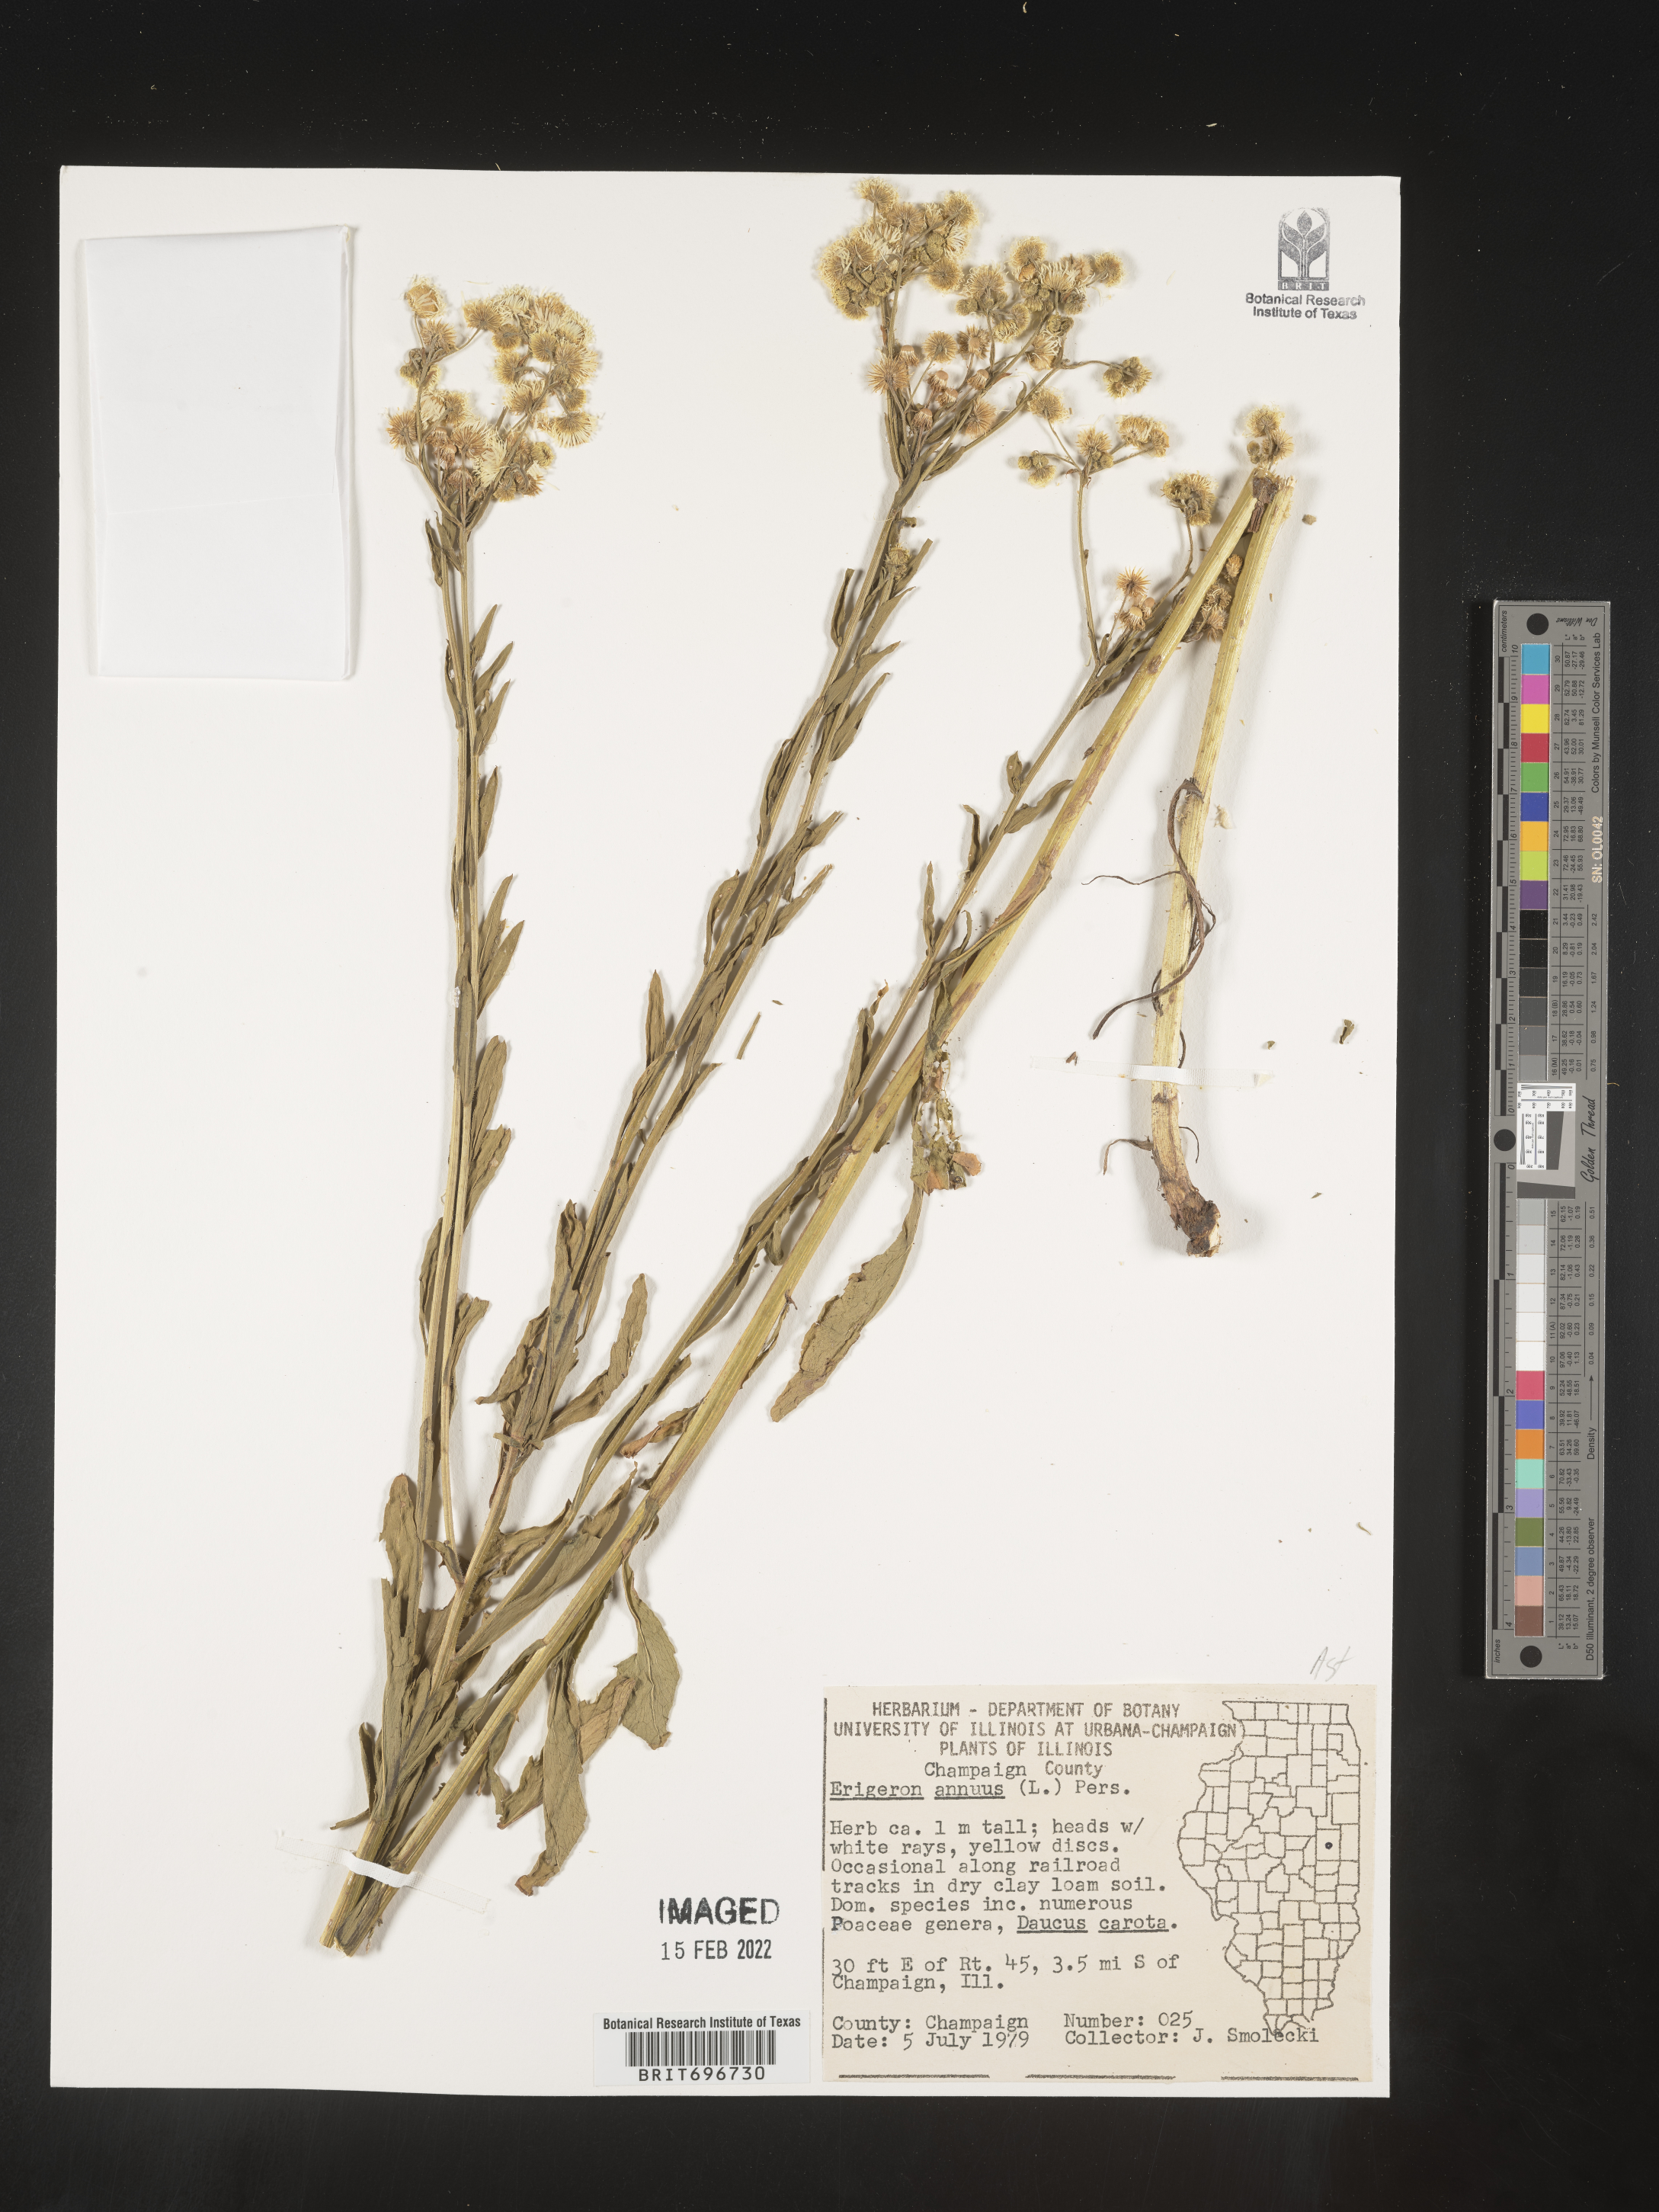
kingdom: Plantae
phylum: Tracheophyta
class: Magnoliopsida
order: Asterales
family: Asteraceae
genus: Erigeron
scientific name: Erigeron annuus
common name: Tall fleabane
